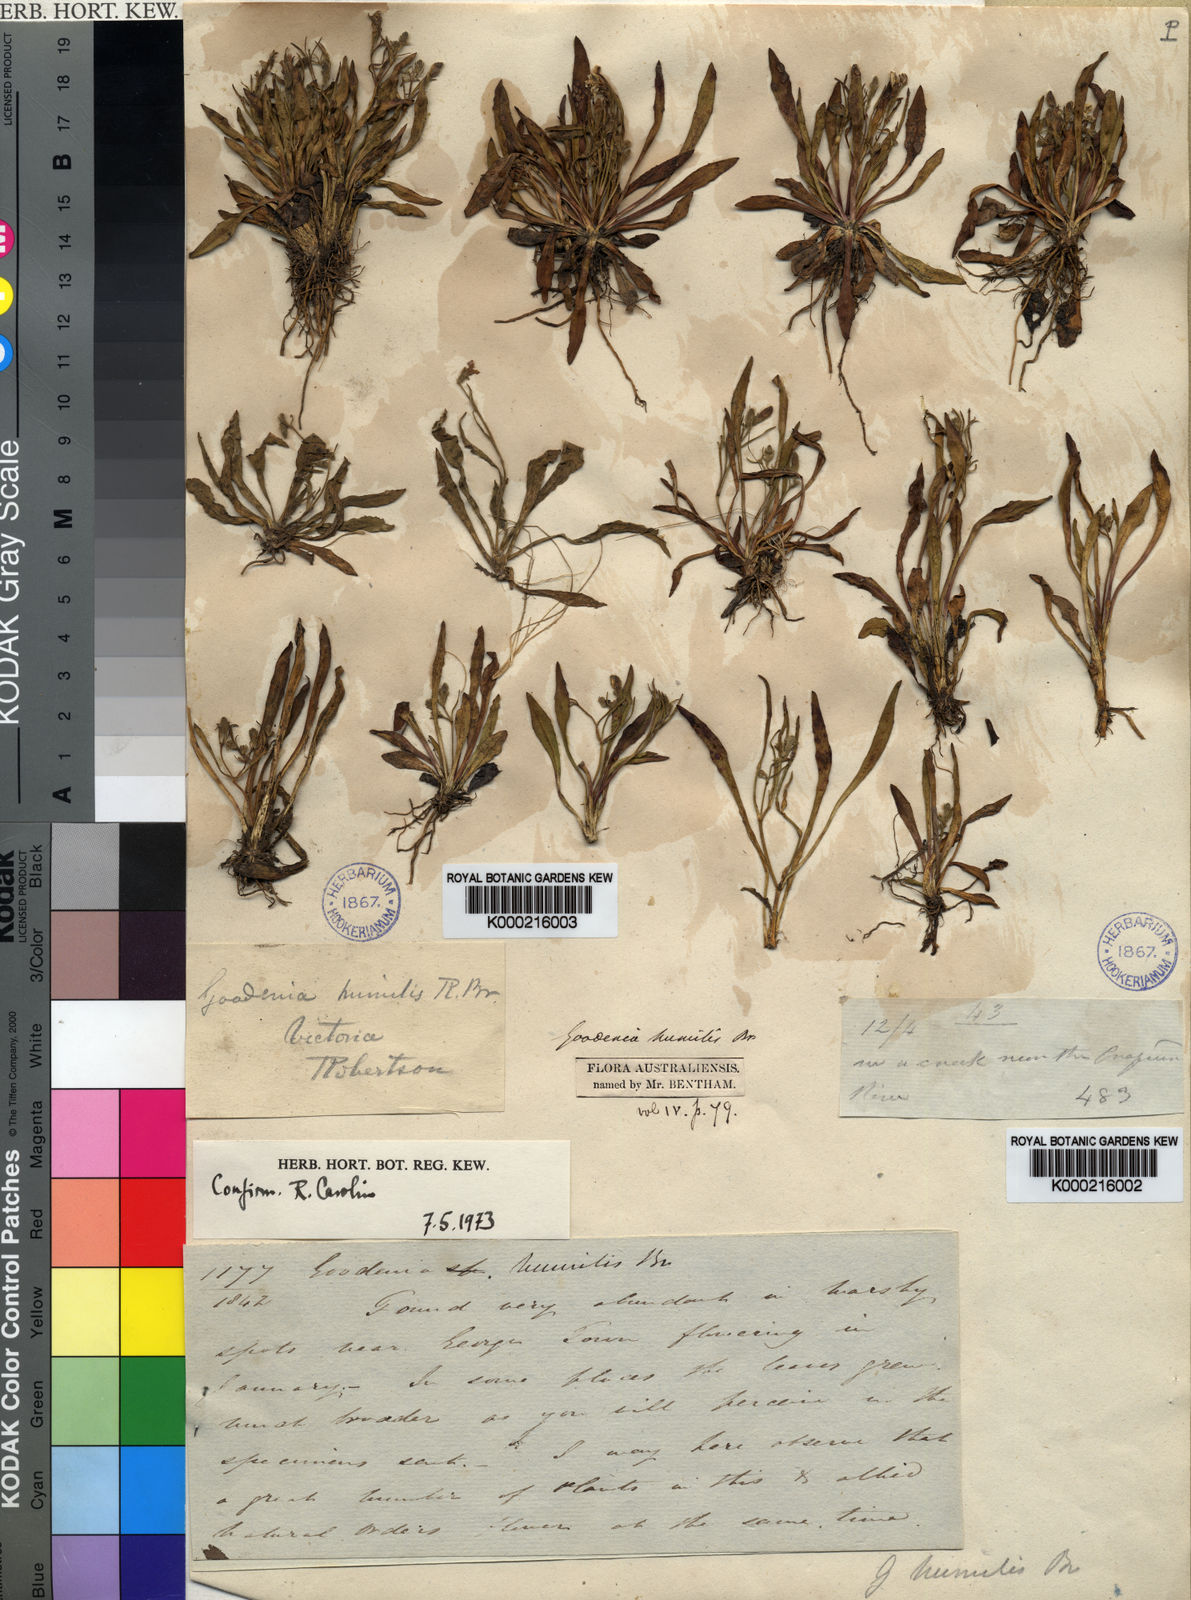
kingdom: Plantae
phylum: Tracheophyta
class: Magnoliopsida
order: Asterales
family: Goodeniaceae
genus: Goodenia
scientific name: Goodenia humilis
